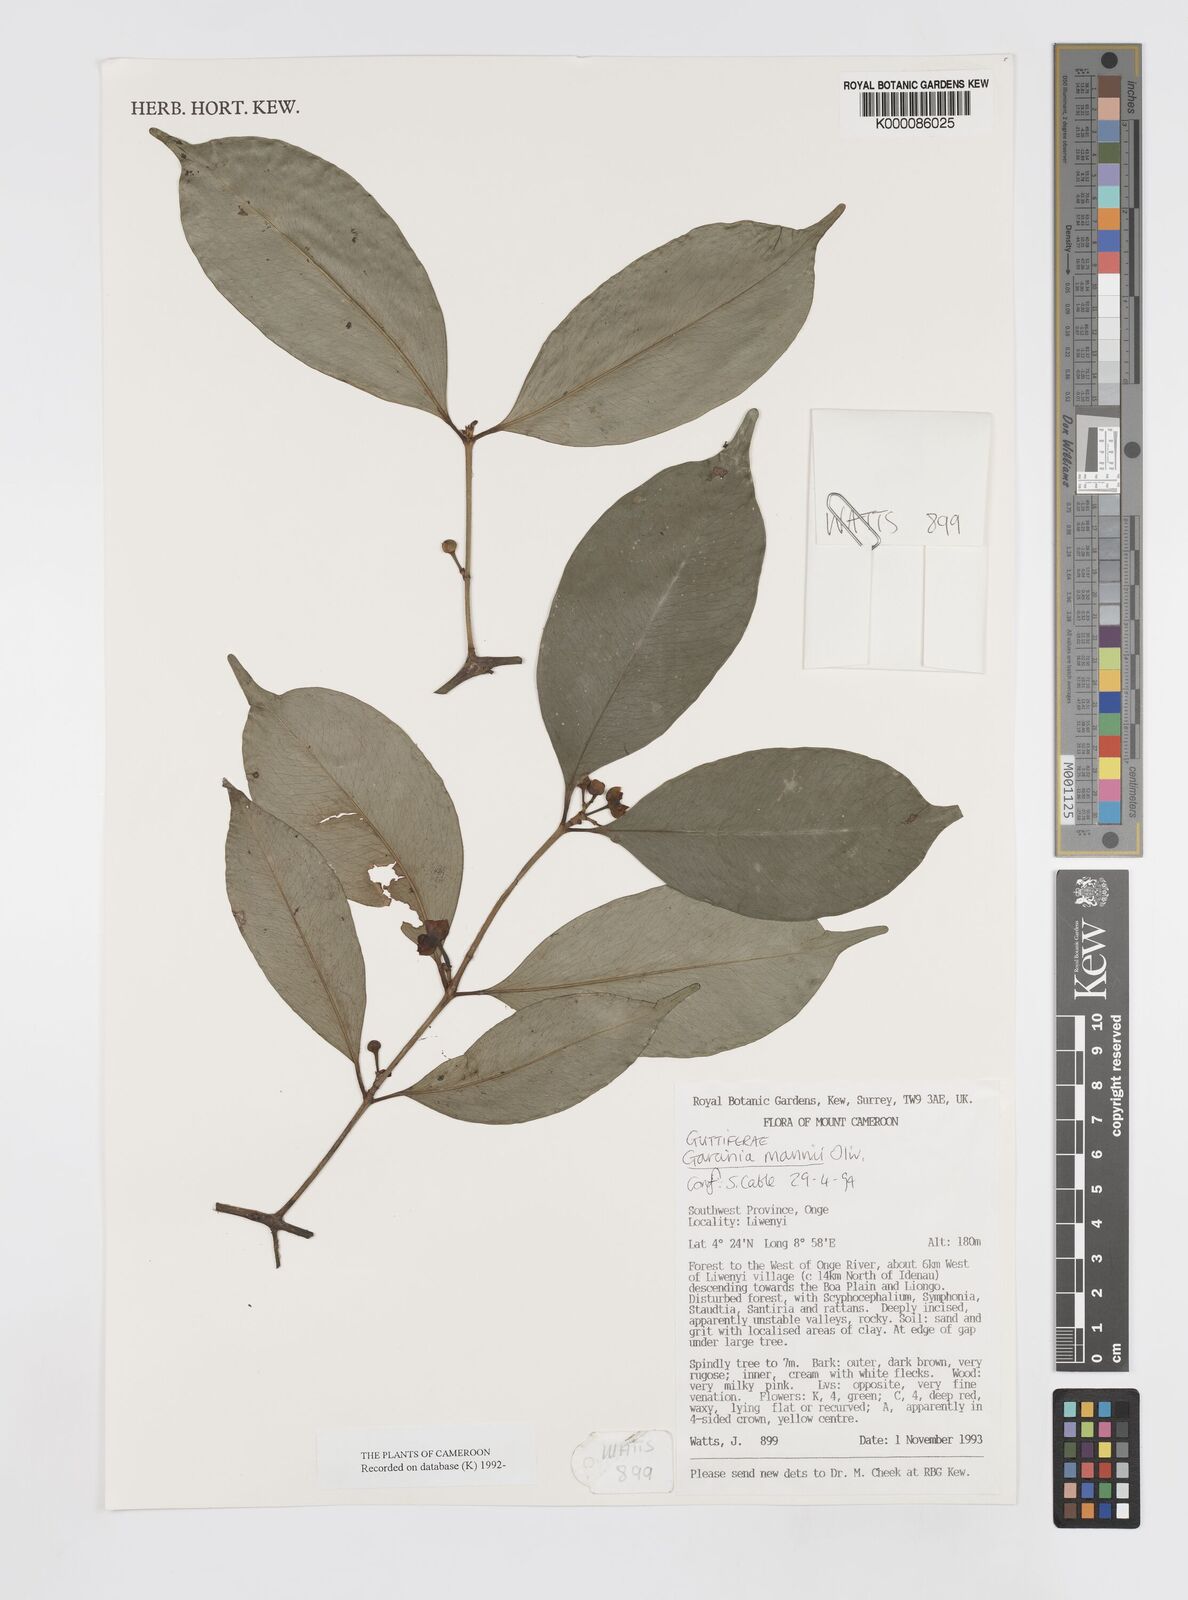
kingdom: Plantae
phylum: Tracheophyta
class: Magnoliopsida
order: Malpighiales
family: Clusiaceae
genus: Garcinia
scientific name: Garcinia mannii
